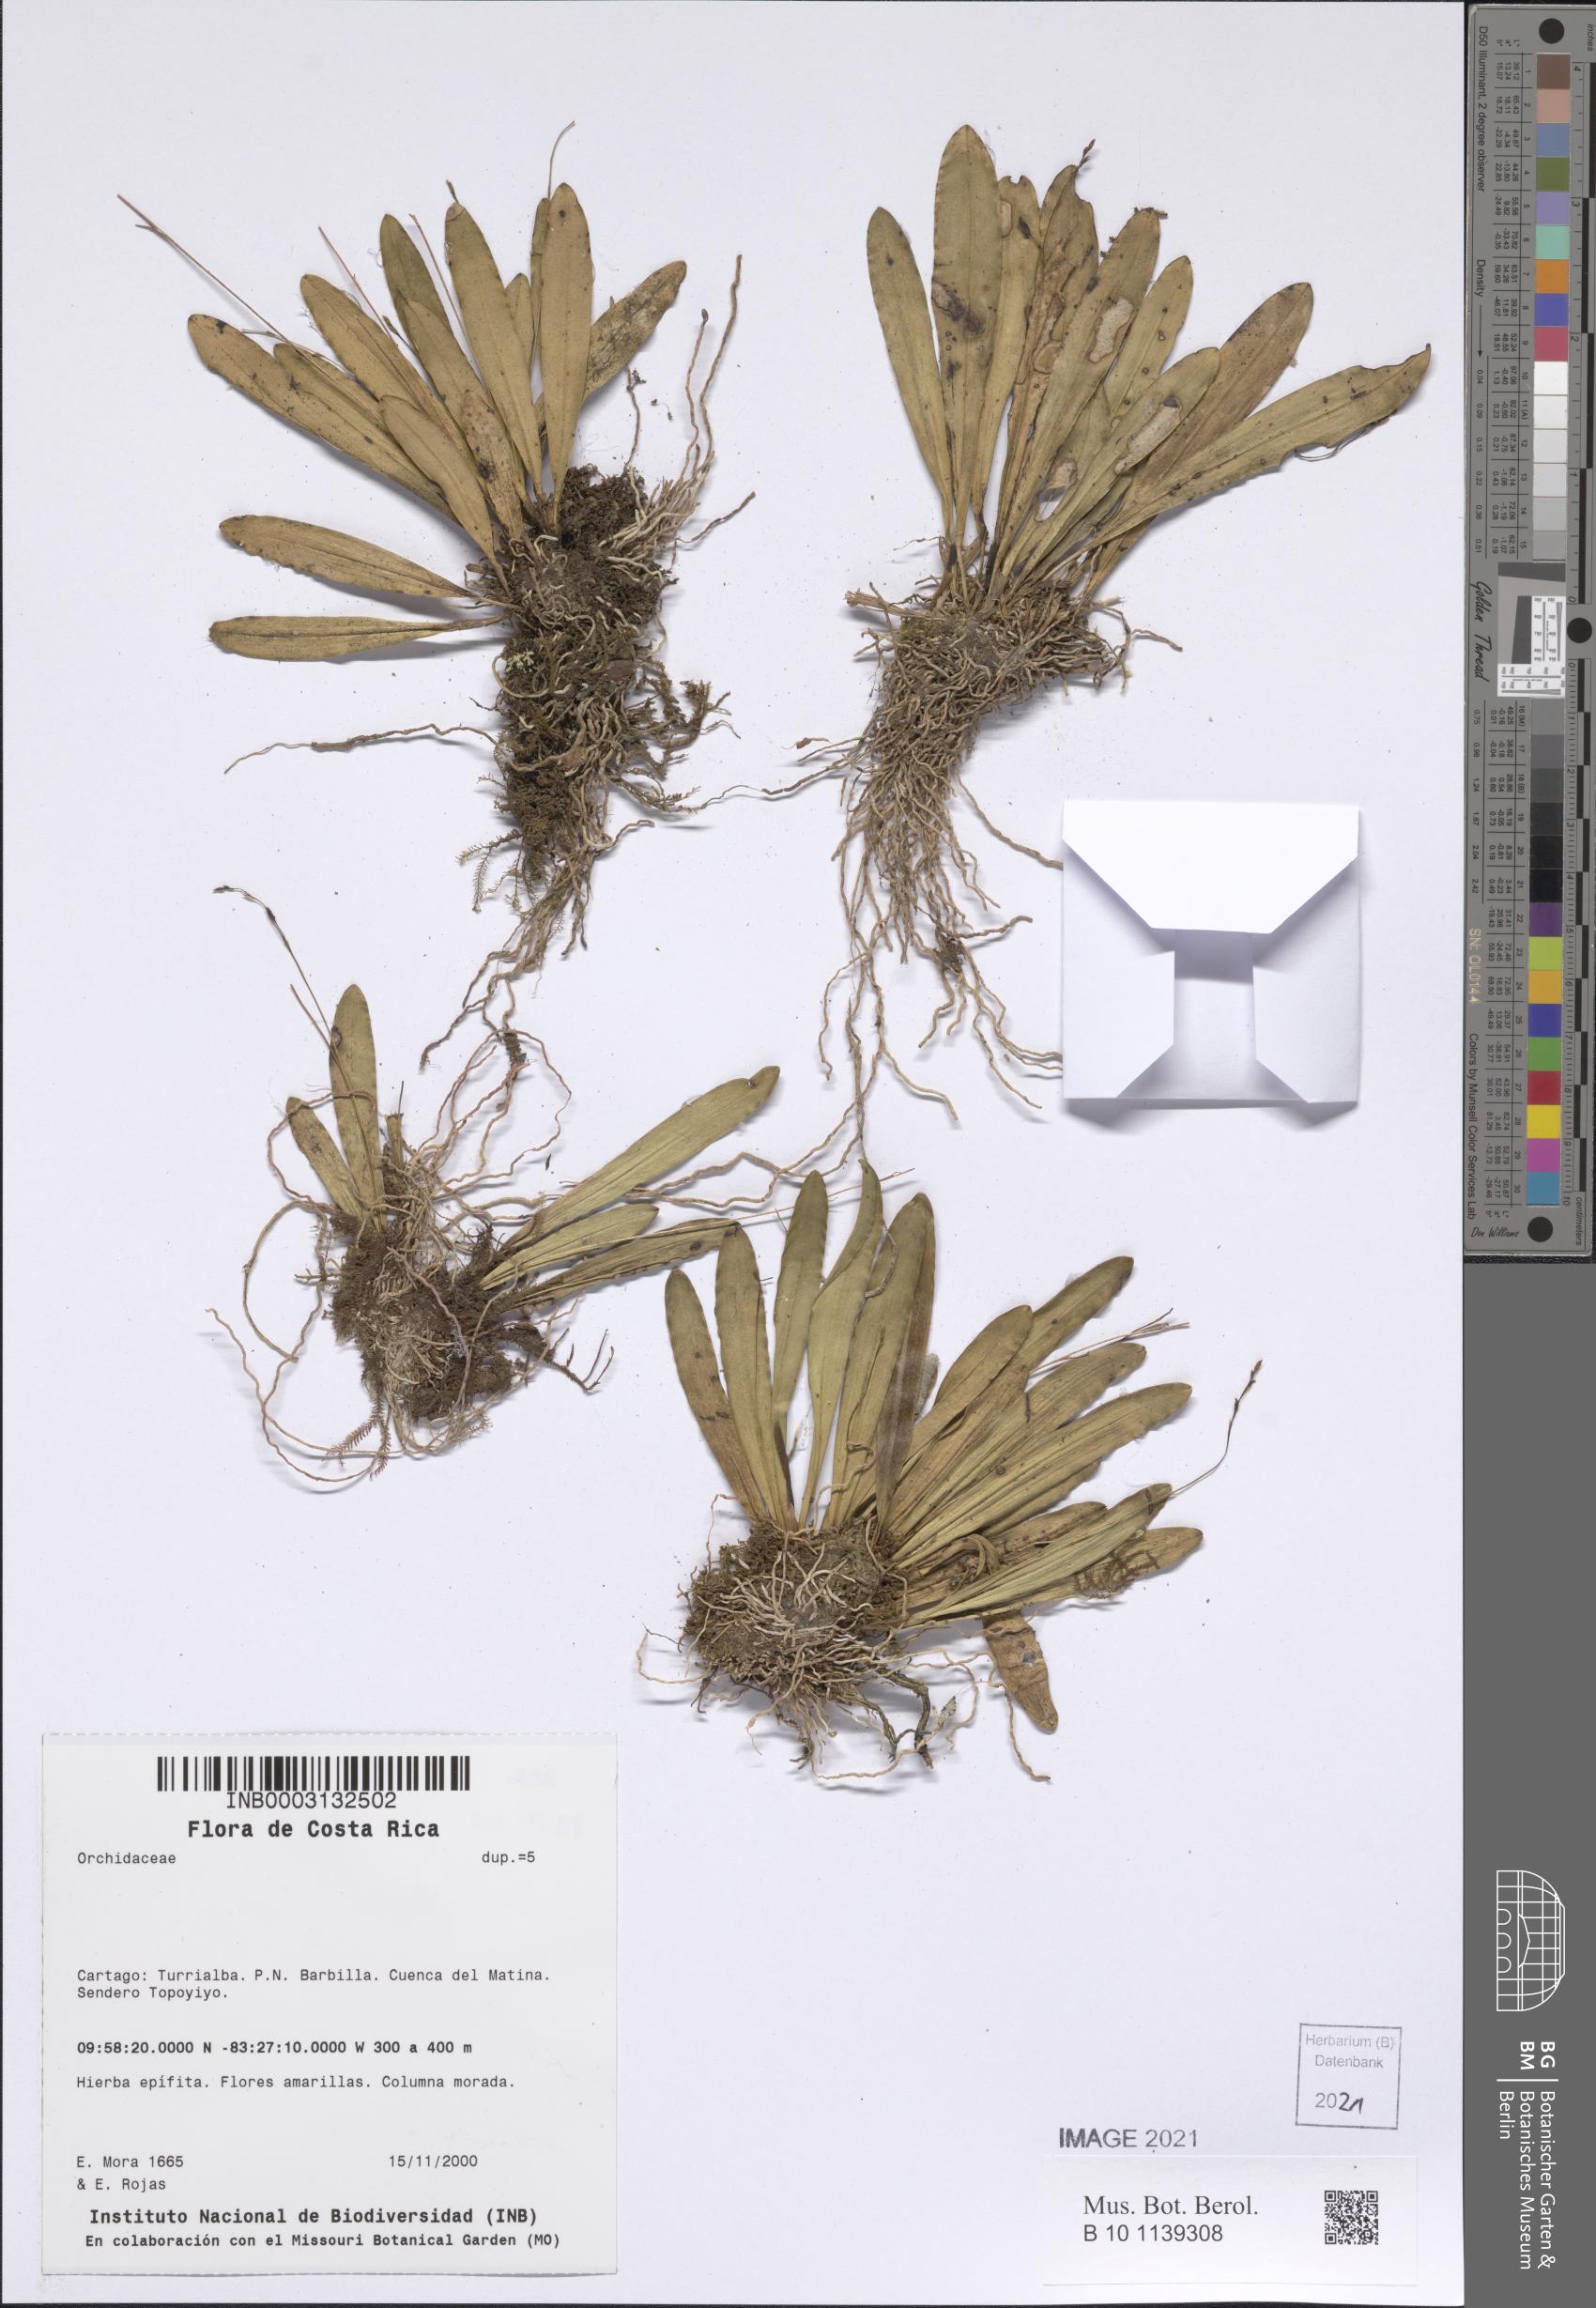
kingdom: Plantae
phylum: Tracheophyta
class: Liliopsida
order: Asparagales
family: Orchidaceae
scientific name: Orchidaceae
